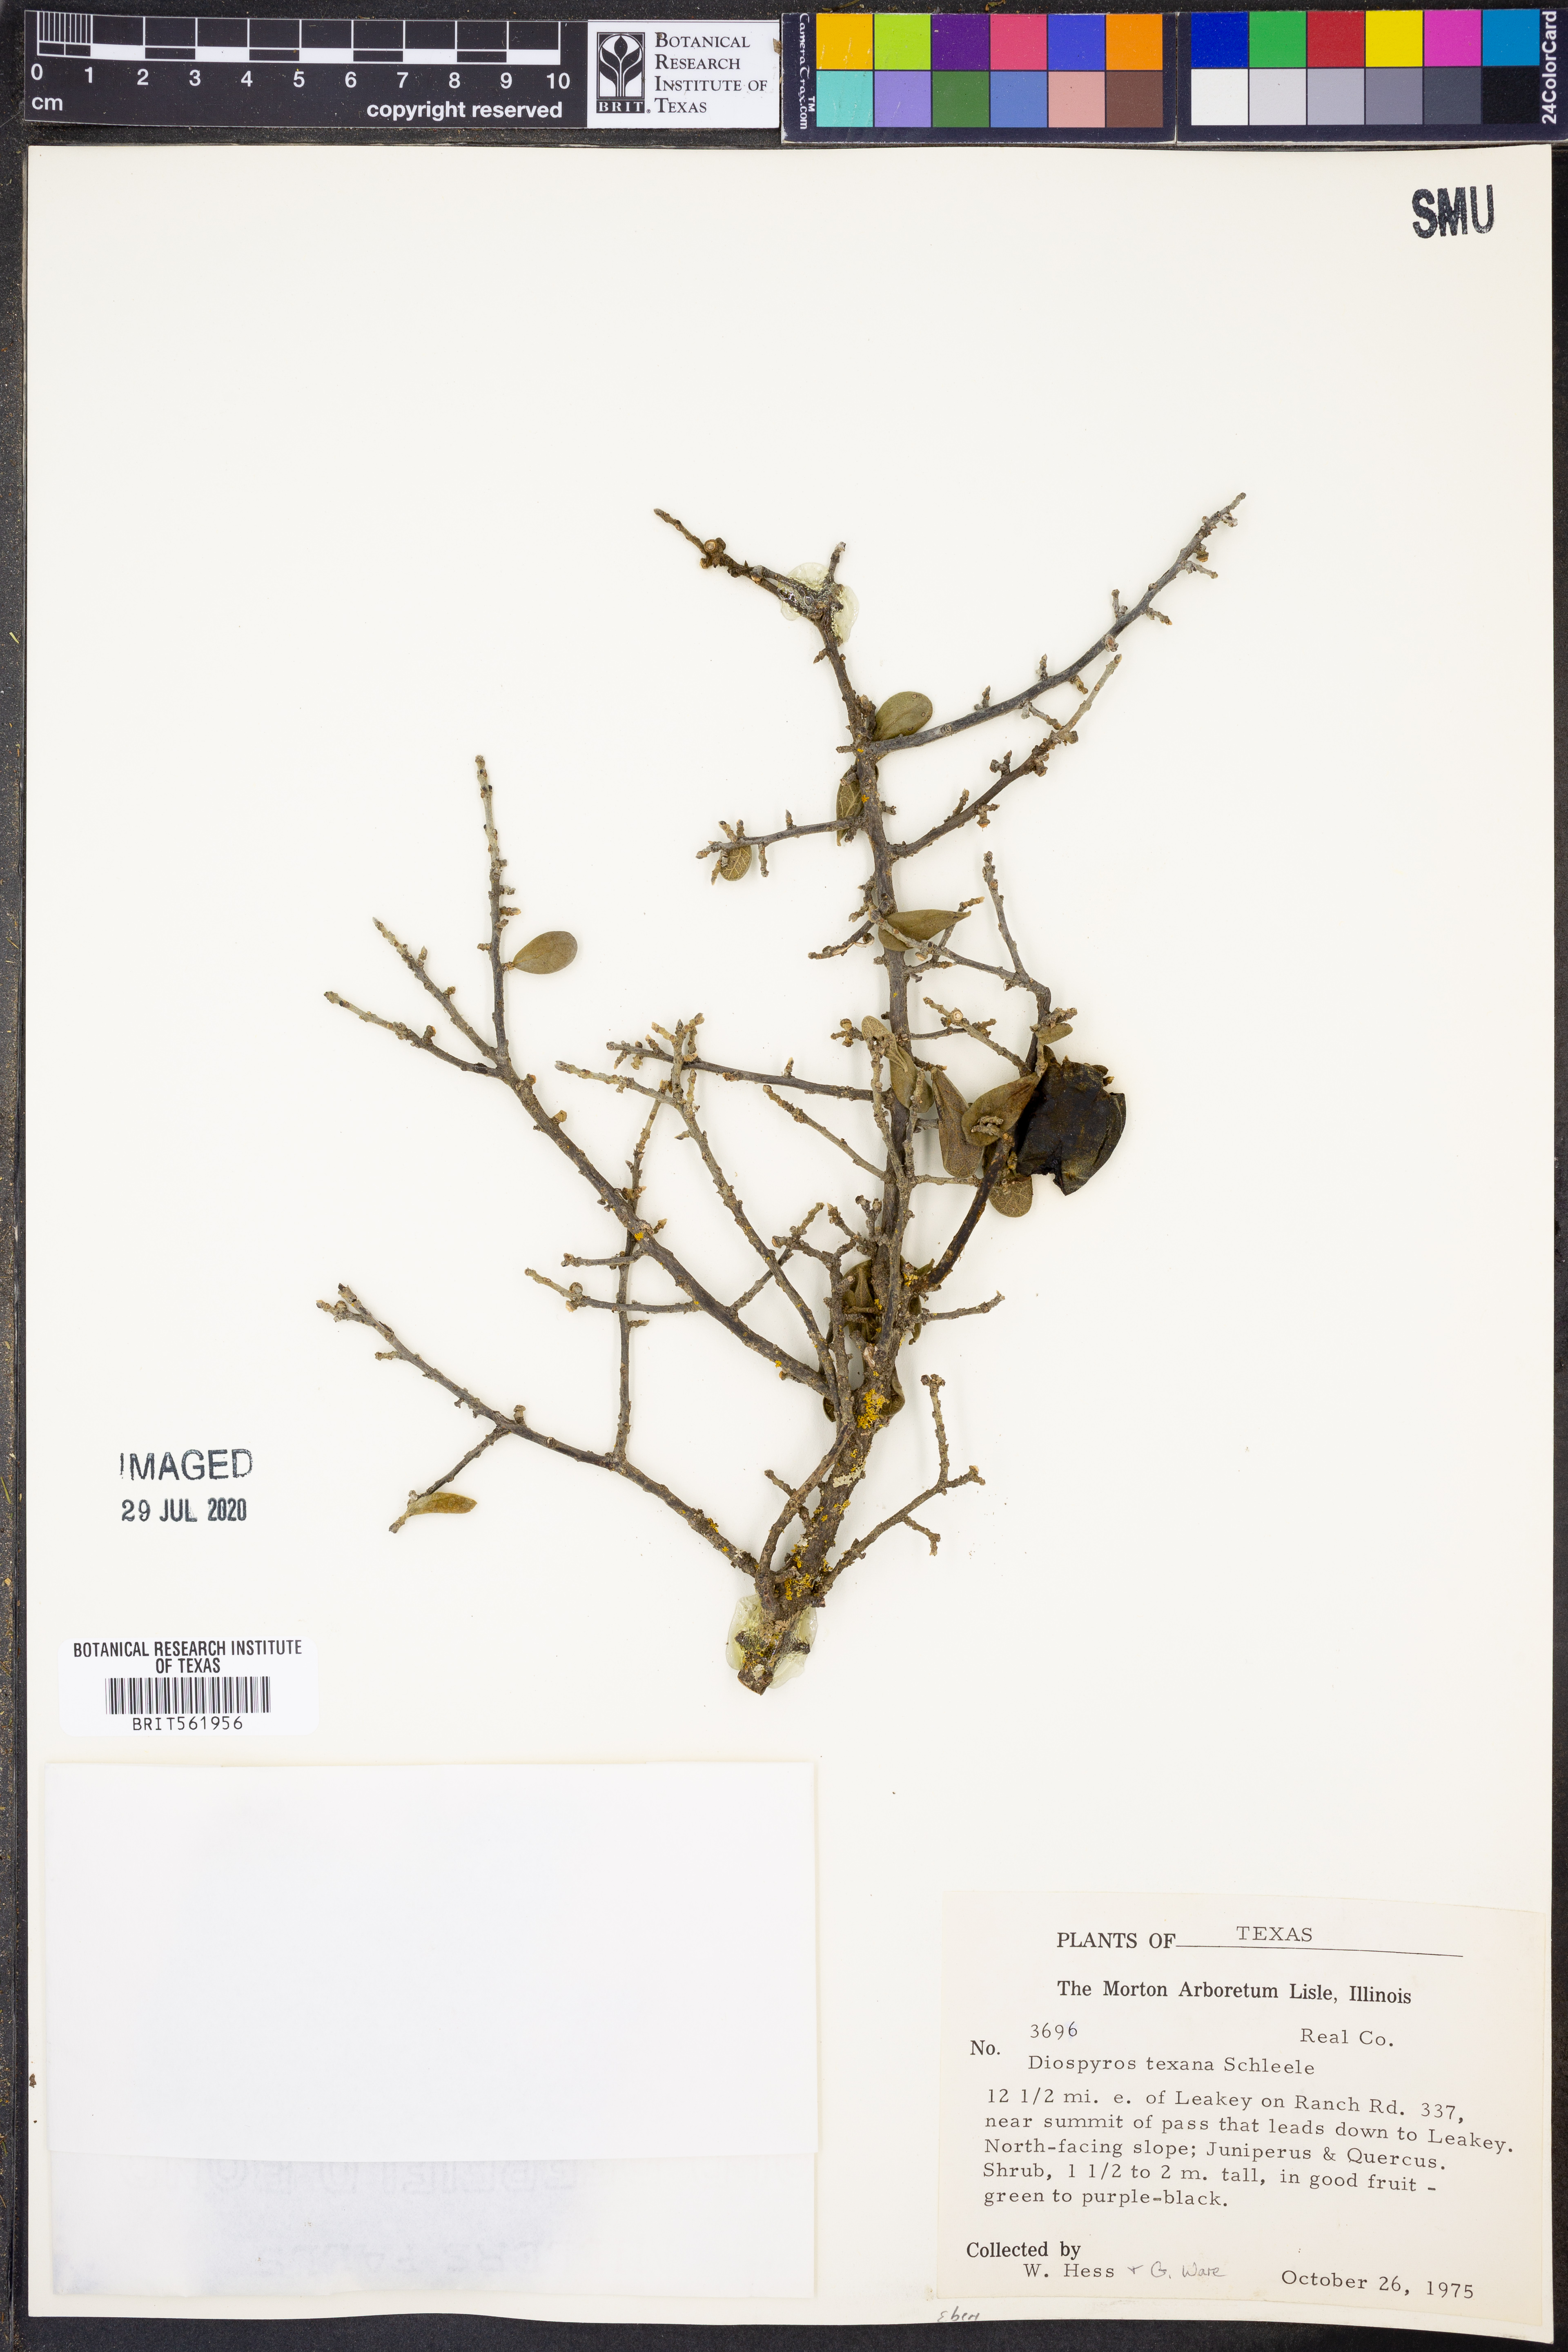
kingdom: Plantae
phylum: Tracheophyta
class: Magnoliopsida
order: Ericales
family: Ebenaceae
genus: Diospyros
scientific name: Diospyros texana
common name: Texas persimmon
